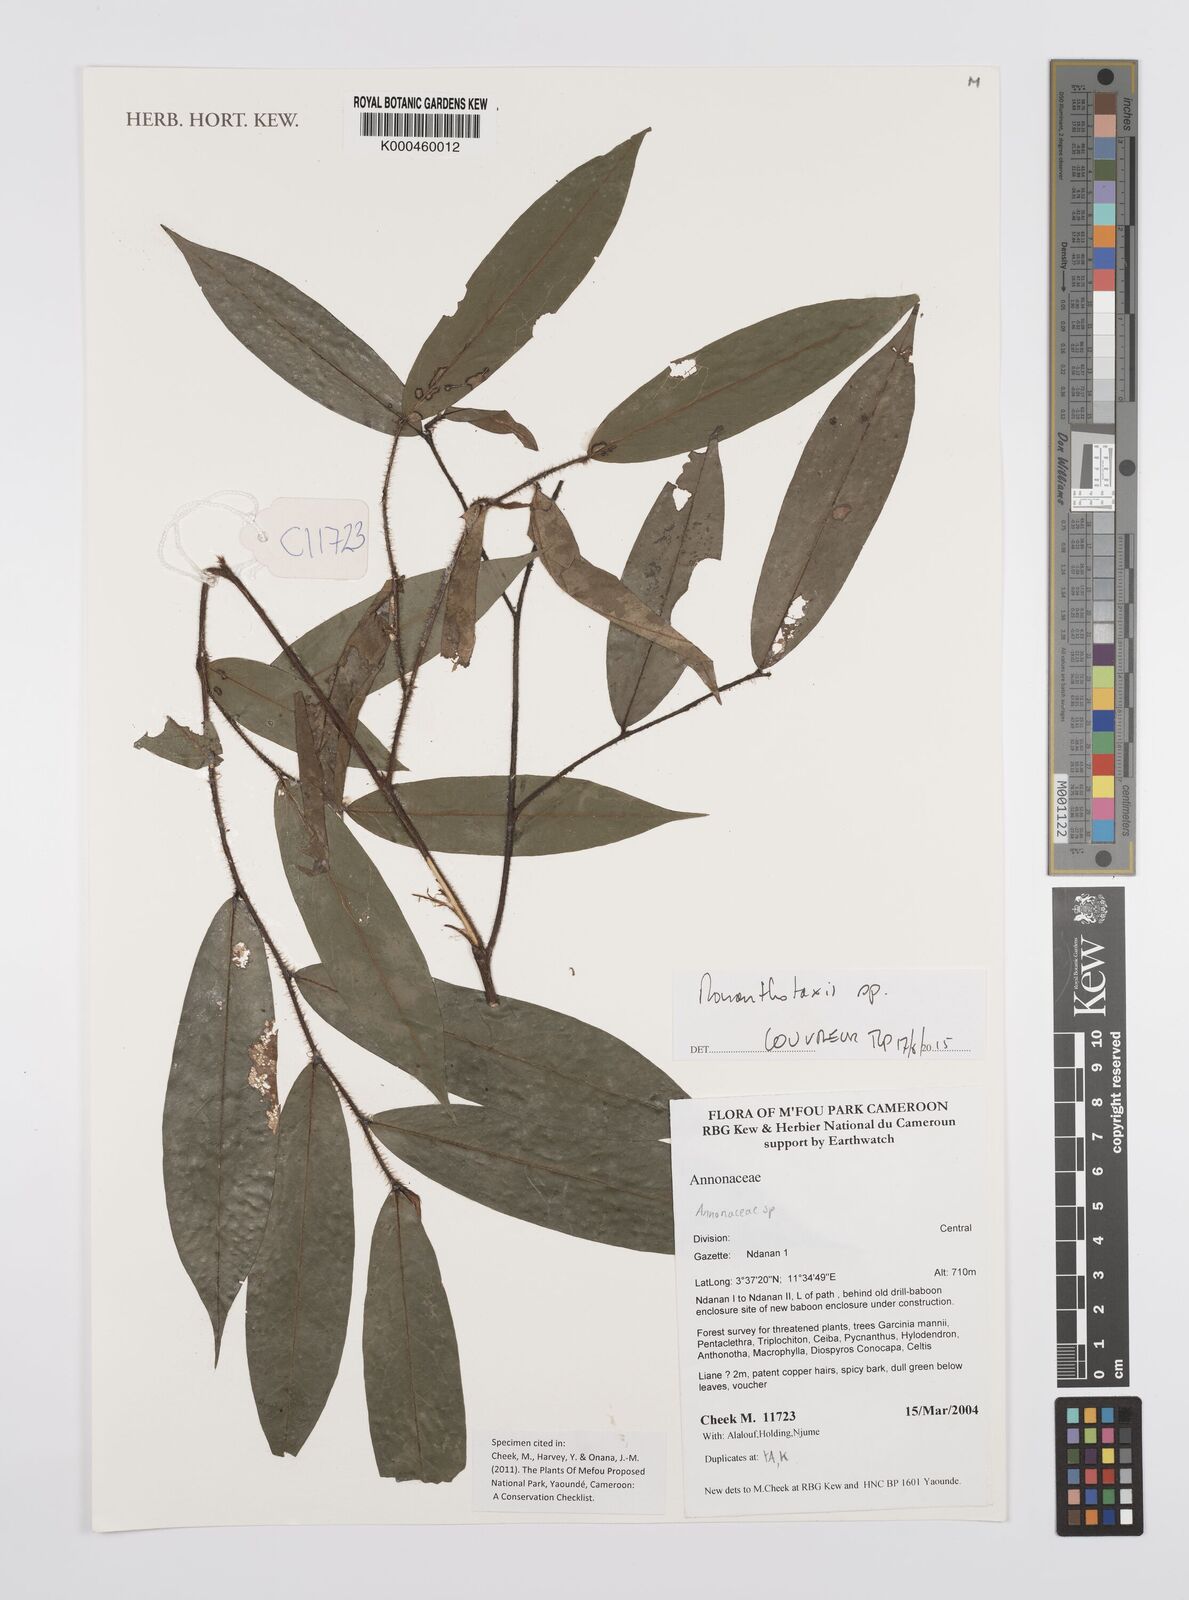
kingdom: Plantae
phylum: Tracheophyta
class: Magnoliopsida
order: Magnoliales
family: Annonaceae
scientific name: Annonaceae
